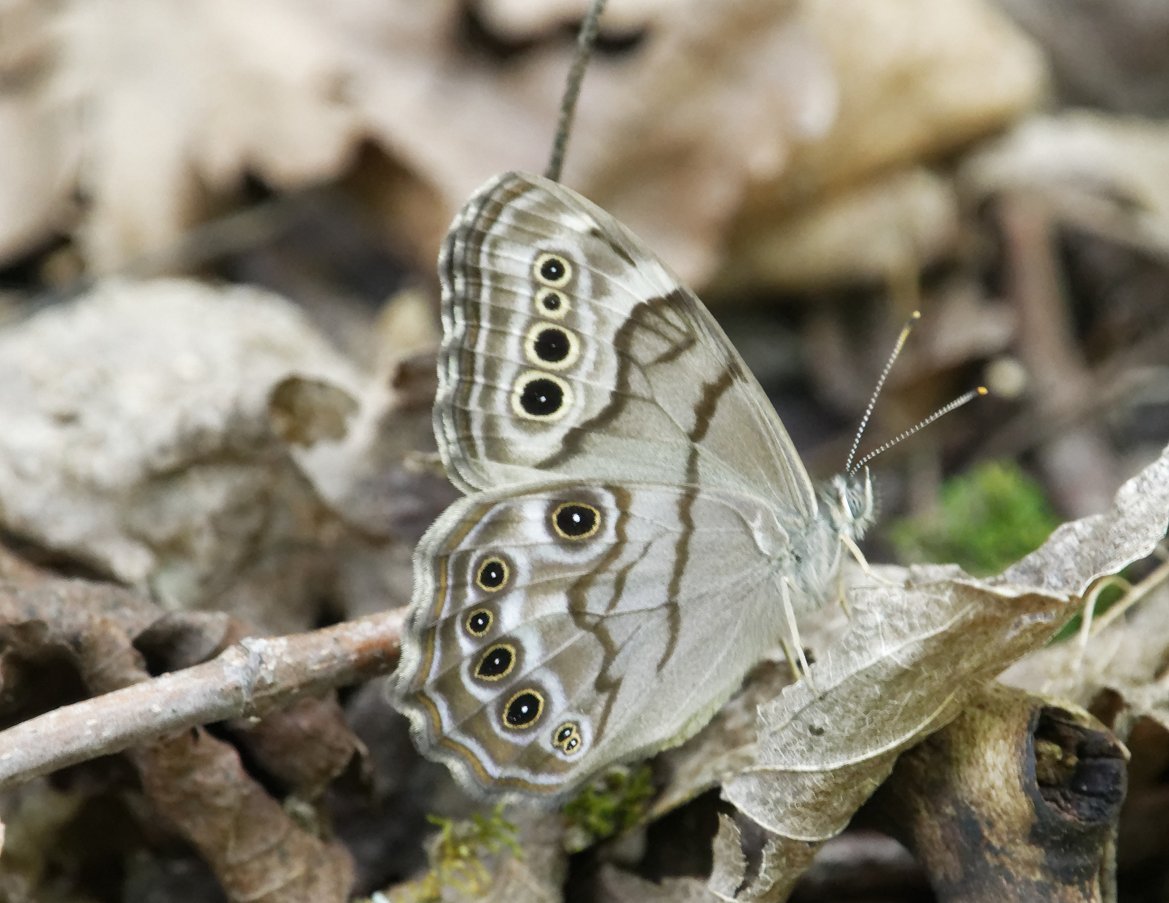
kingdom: Animalia
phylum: Arthropoda
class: Insecta
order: Lepidoptera
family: Nymphalidae
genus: Lethe
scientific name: Lethe anthedon
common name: Northern Pearly-Eye
